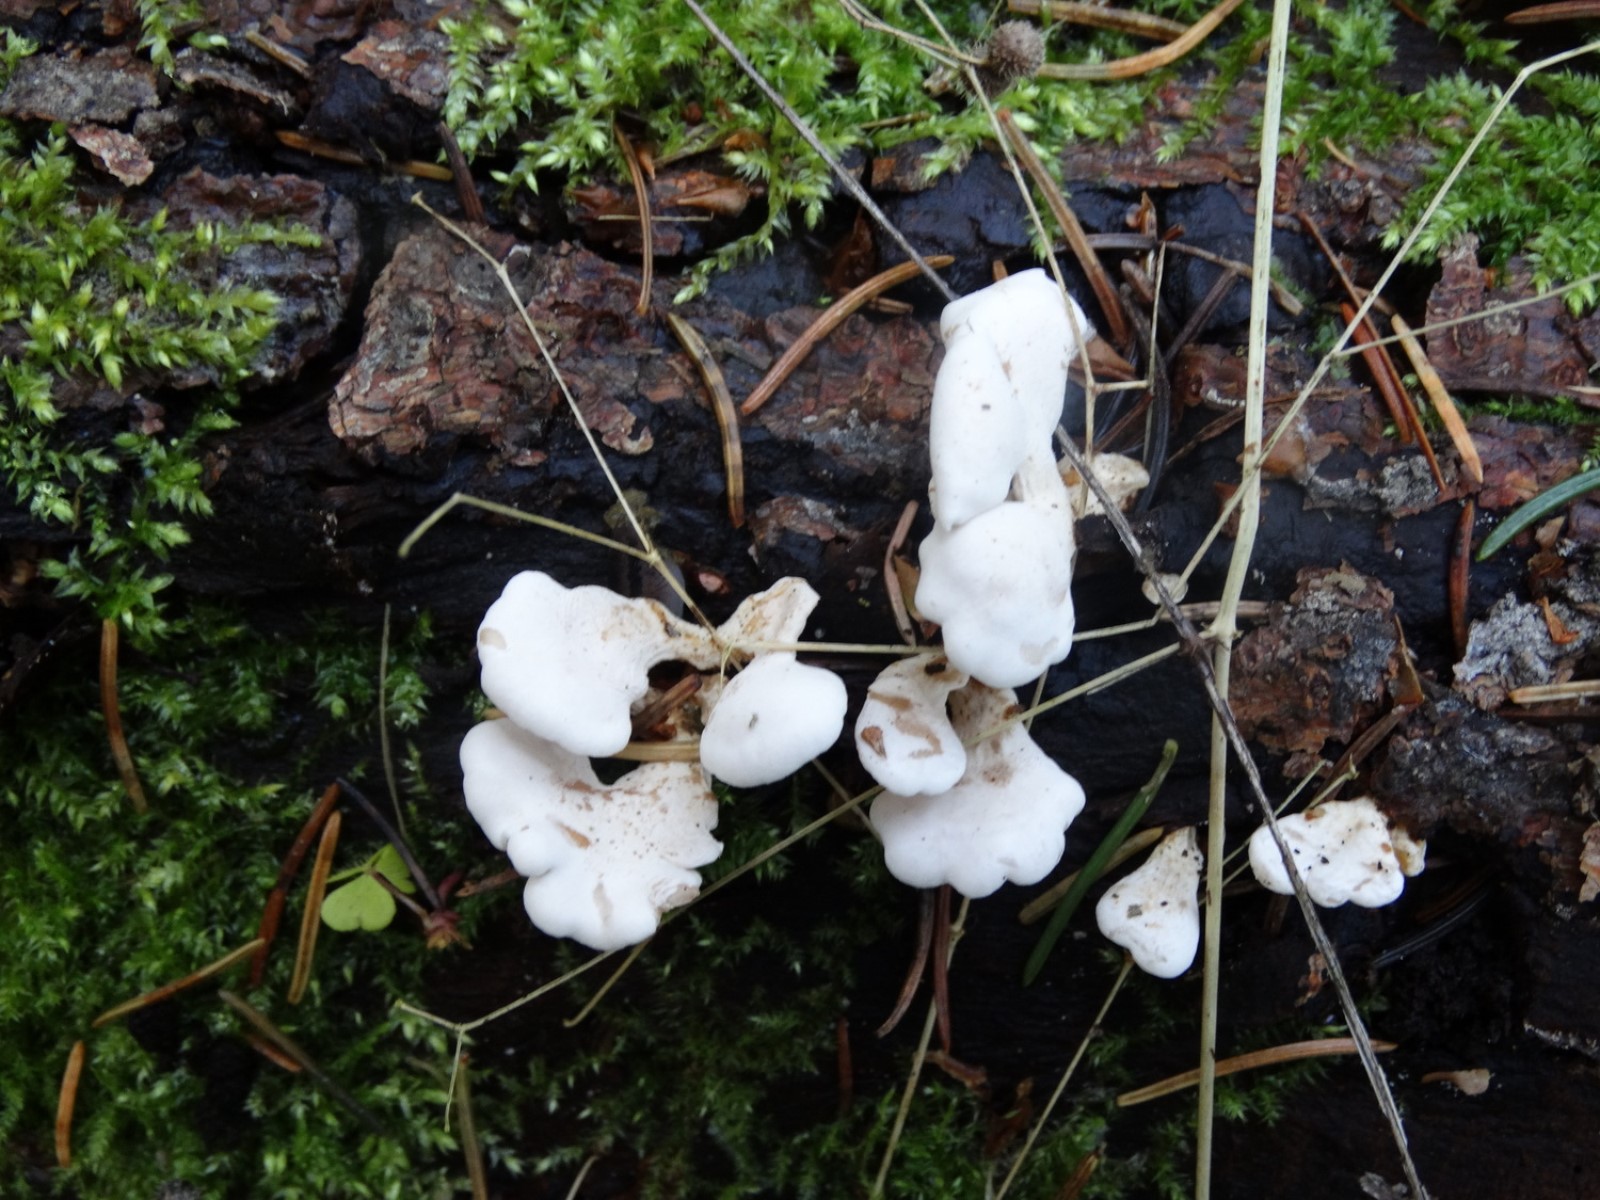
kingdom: Fungi
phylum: Basidiomycota
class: Agaricomycetes
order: Agaricales
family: Mycenaceae
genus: Panellus
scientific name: Panellus mitis
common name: mild epaulethat
